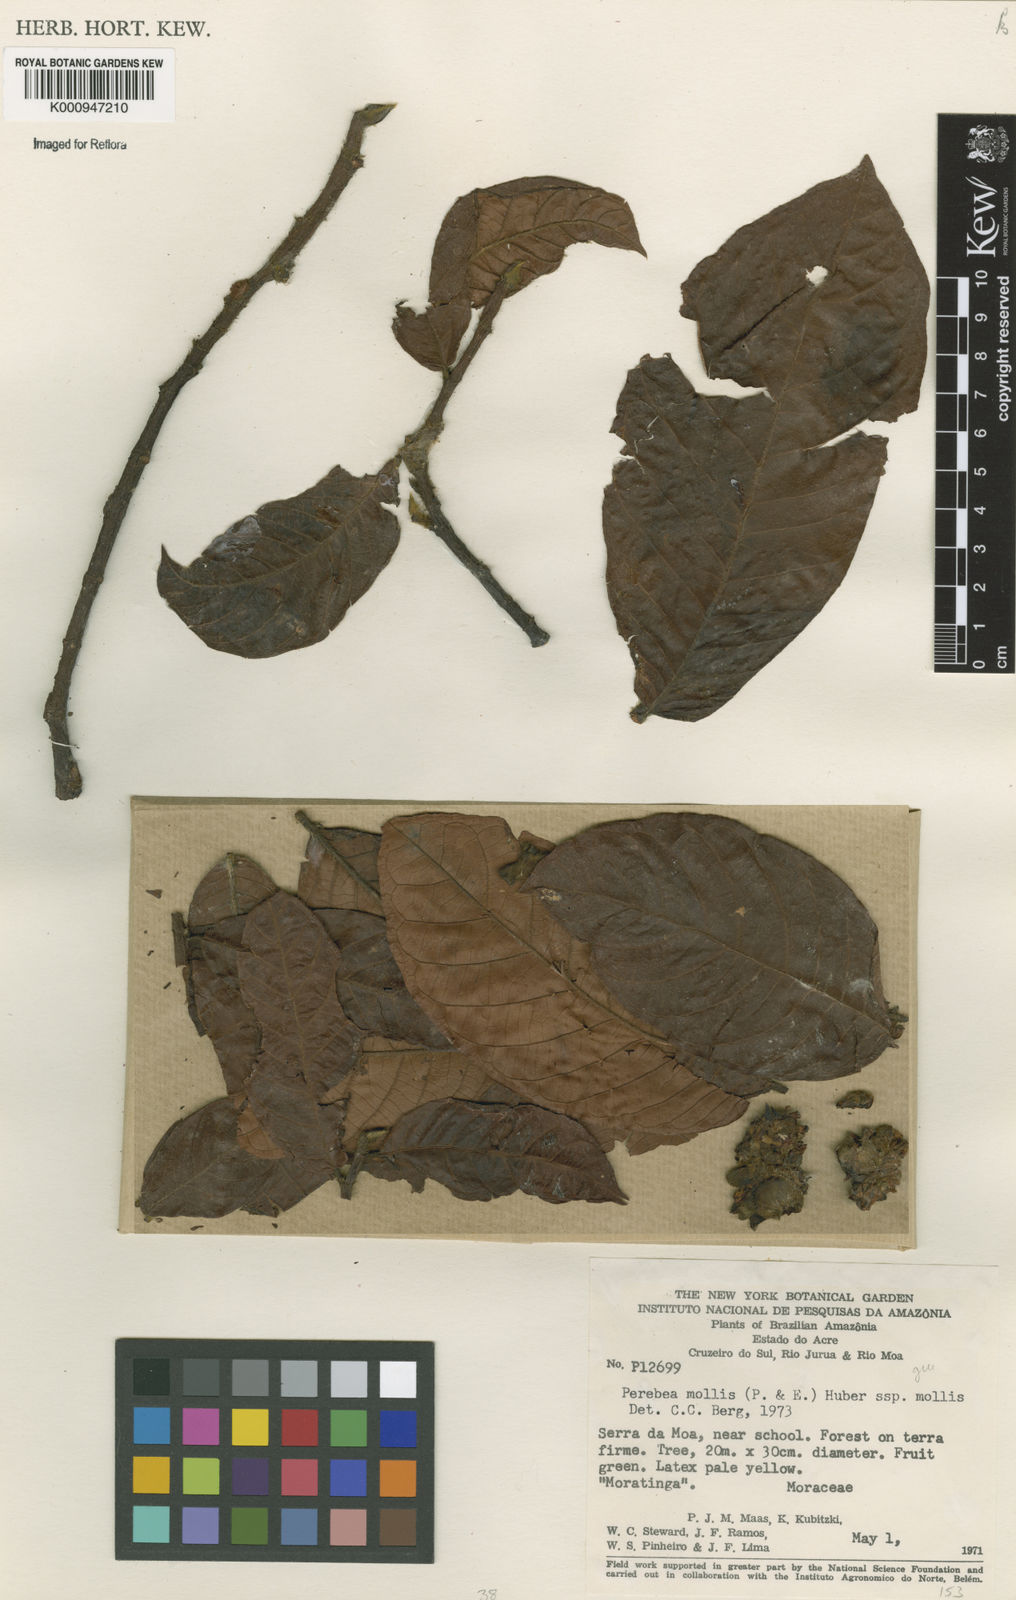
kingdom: Plantae
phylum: Tracheophyta
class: Magnoliopsida
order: Rosales
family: Moraceae
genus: Perebea
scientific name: Perebea mollis
